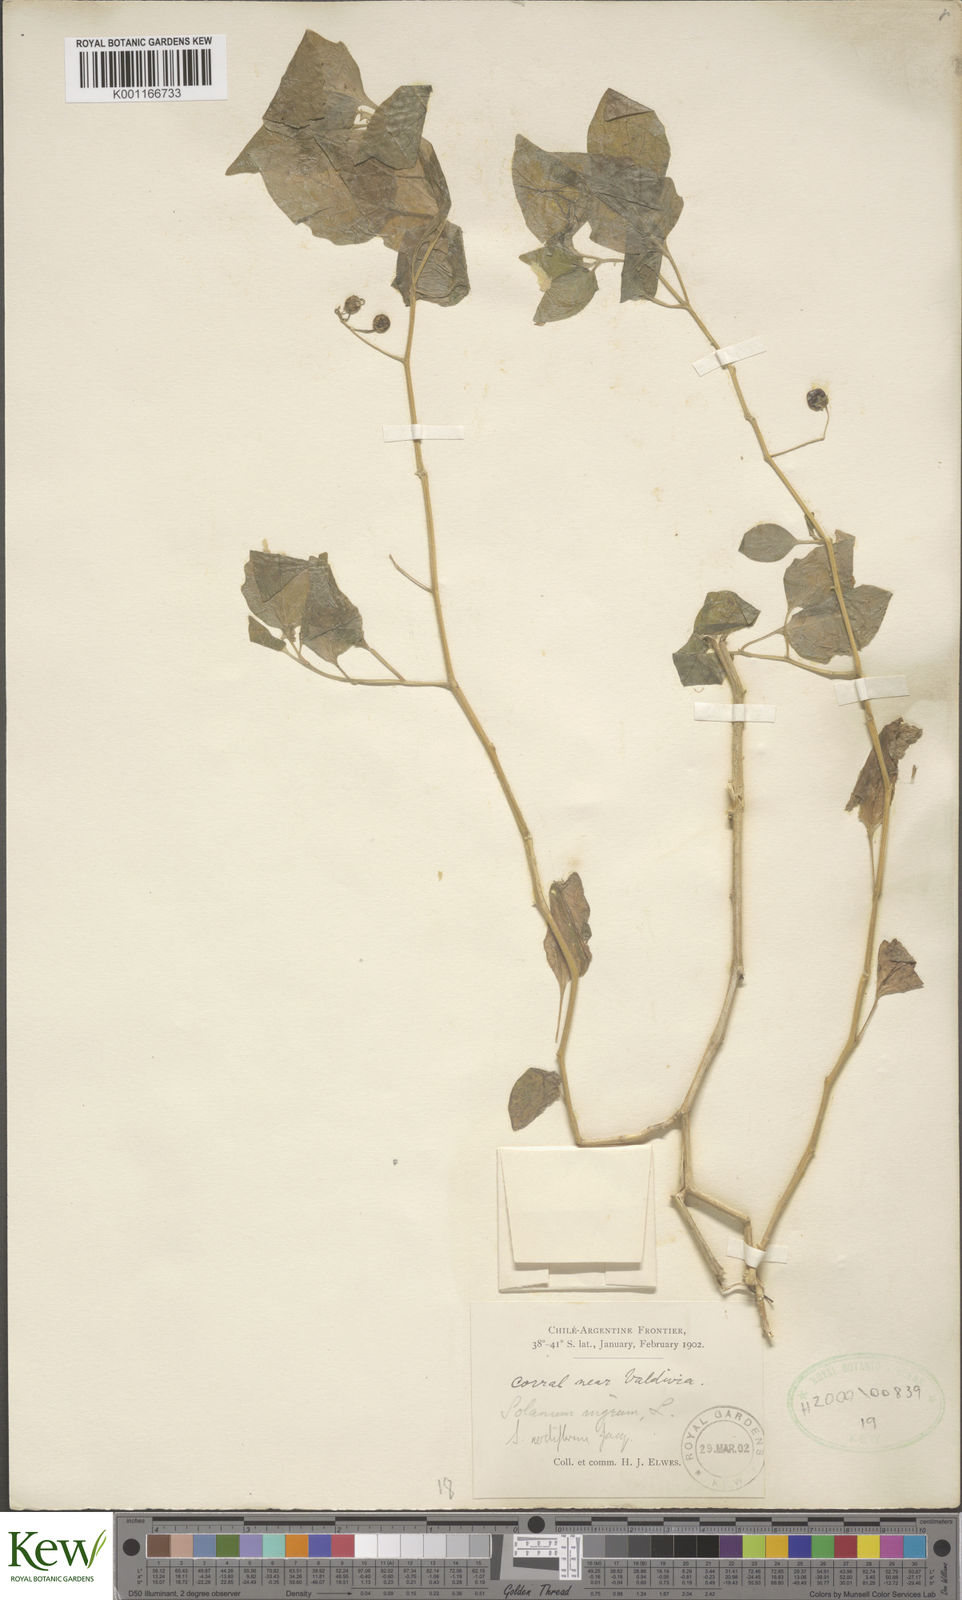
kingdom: Plantae
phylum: Tracheophyta
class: Magnoliopsida
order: Solanales
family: Solanaceae
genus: Solanum
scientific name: Solanum
